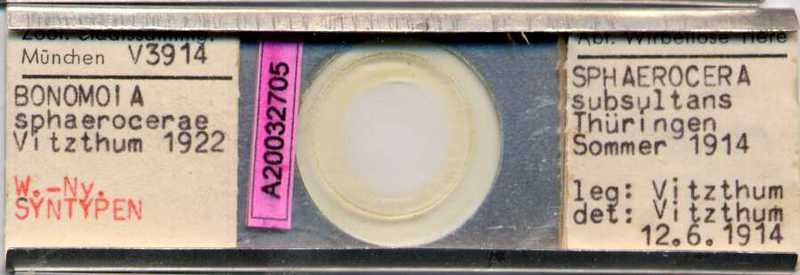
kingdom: Animalia
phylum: Arthropoda
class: Arachnida
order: Sarcoptiformes
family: Histiostomatidae
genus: Capronomoia
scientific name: Capronomoia sphaerocerae
